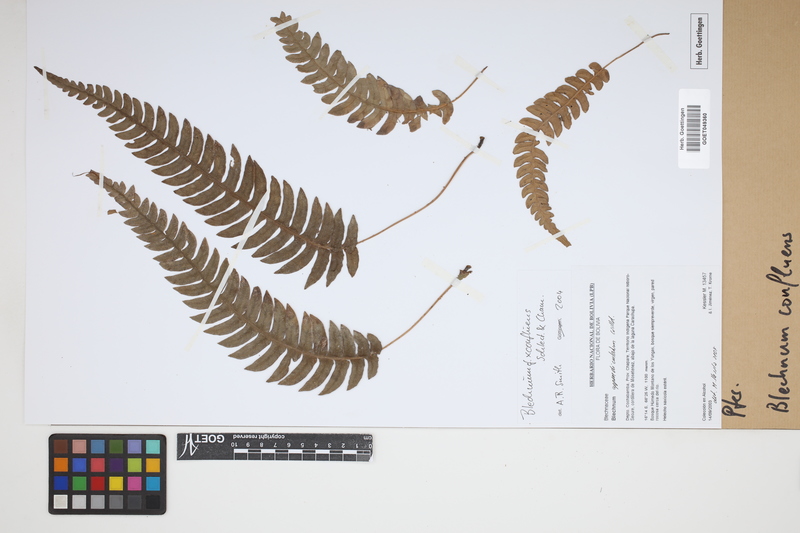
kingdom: Plantae
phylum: Tracheophyta
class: Polypodiopsida
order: Polypodiales
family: Blechnaceae
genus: Blechnum
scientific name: Blechnum
